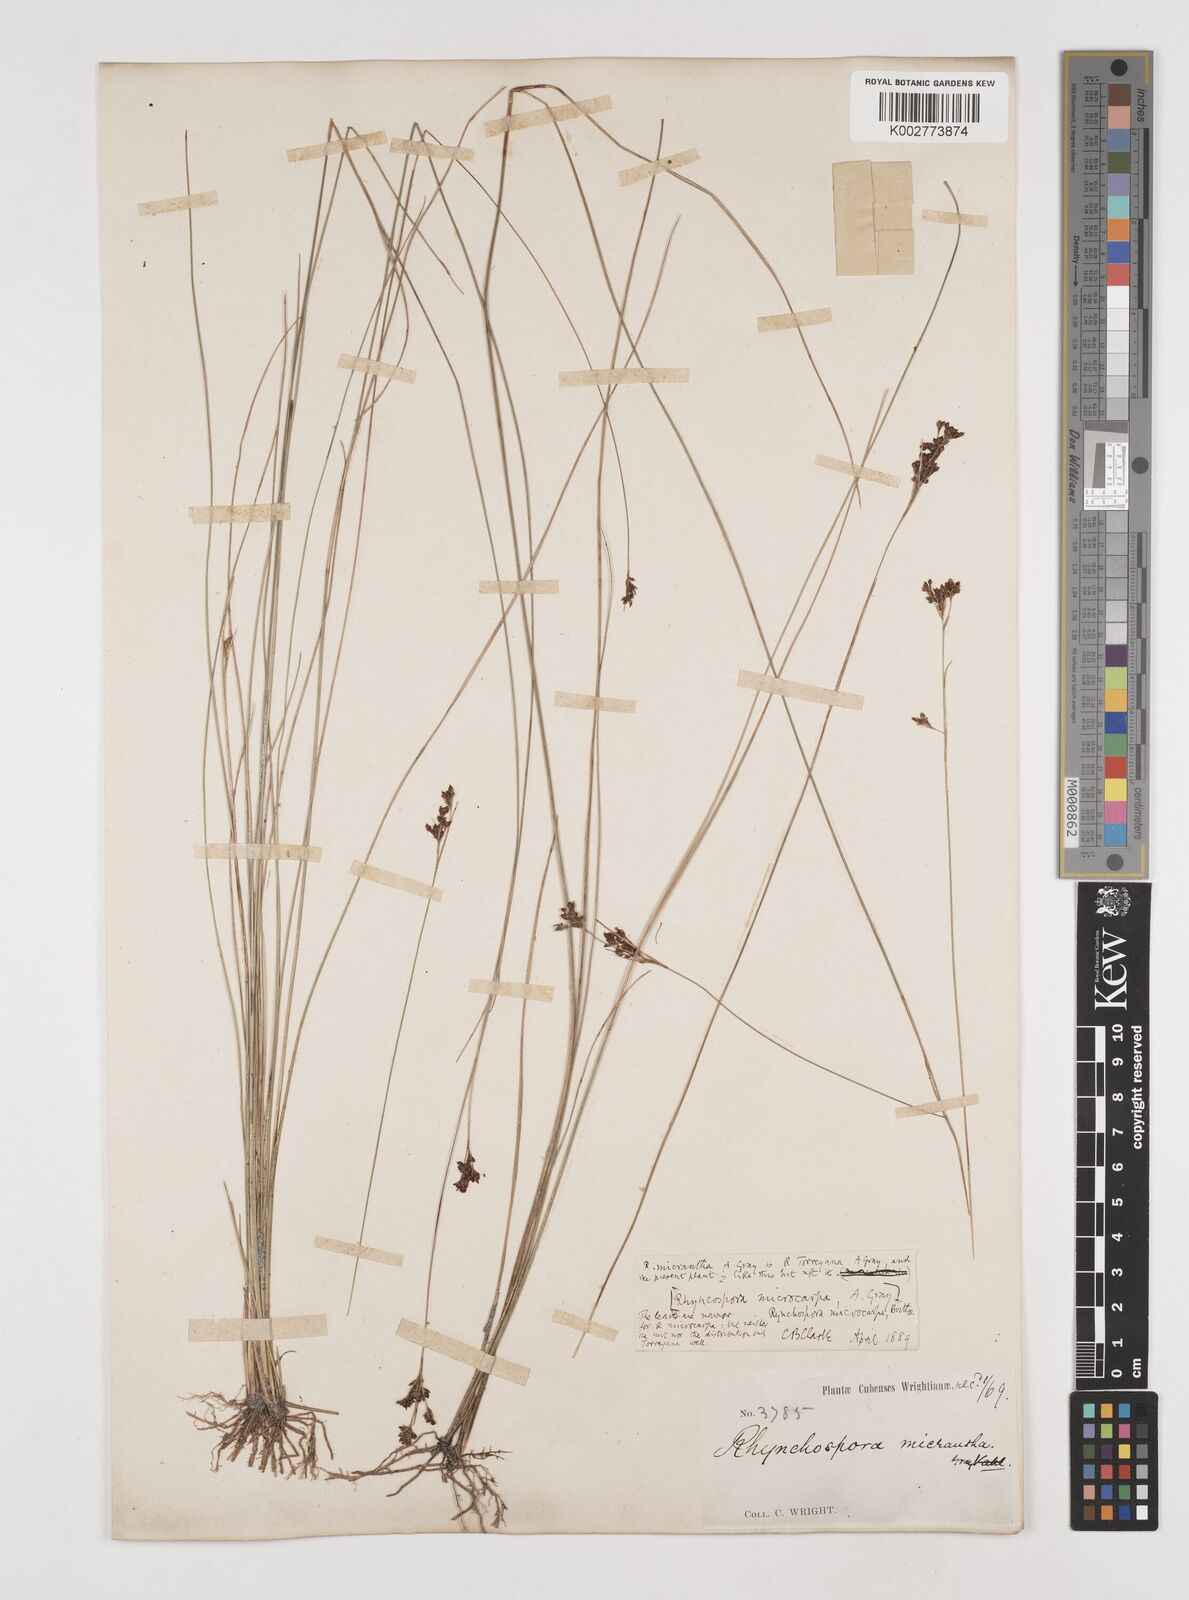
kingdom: Plantae
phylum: Tracheophyta
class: Liliopsida
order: Poales
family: Cyperaceae
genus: Rhynchospora
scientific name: Rhynchospora microcarpa
